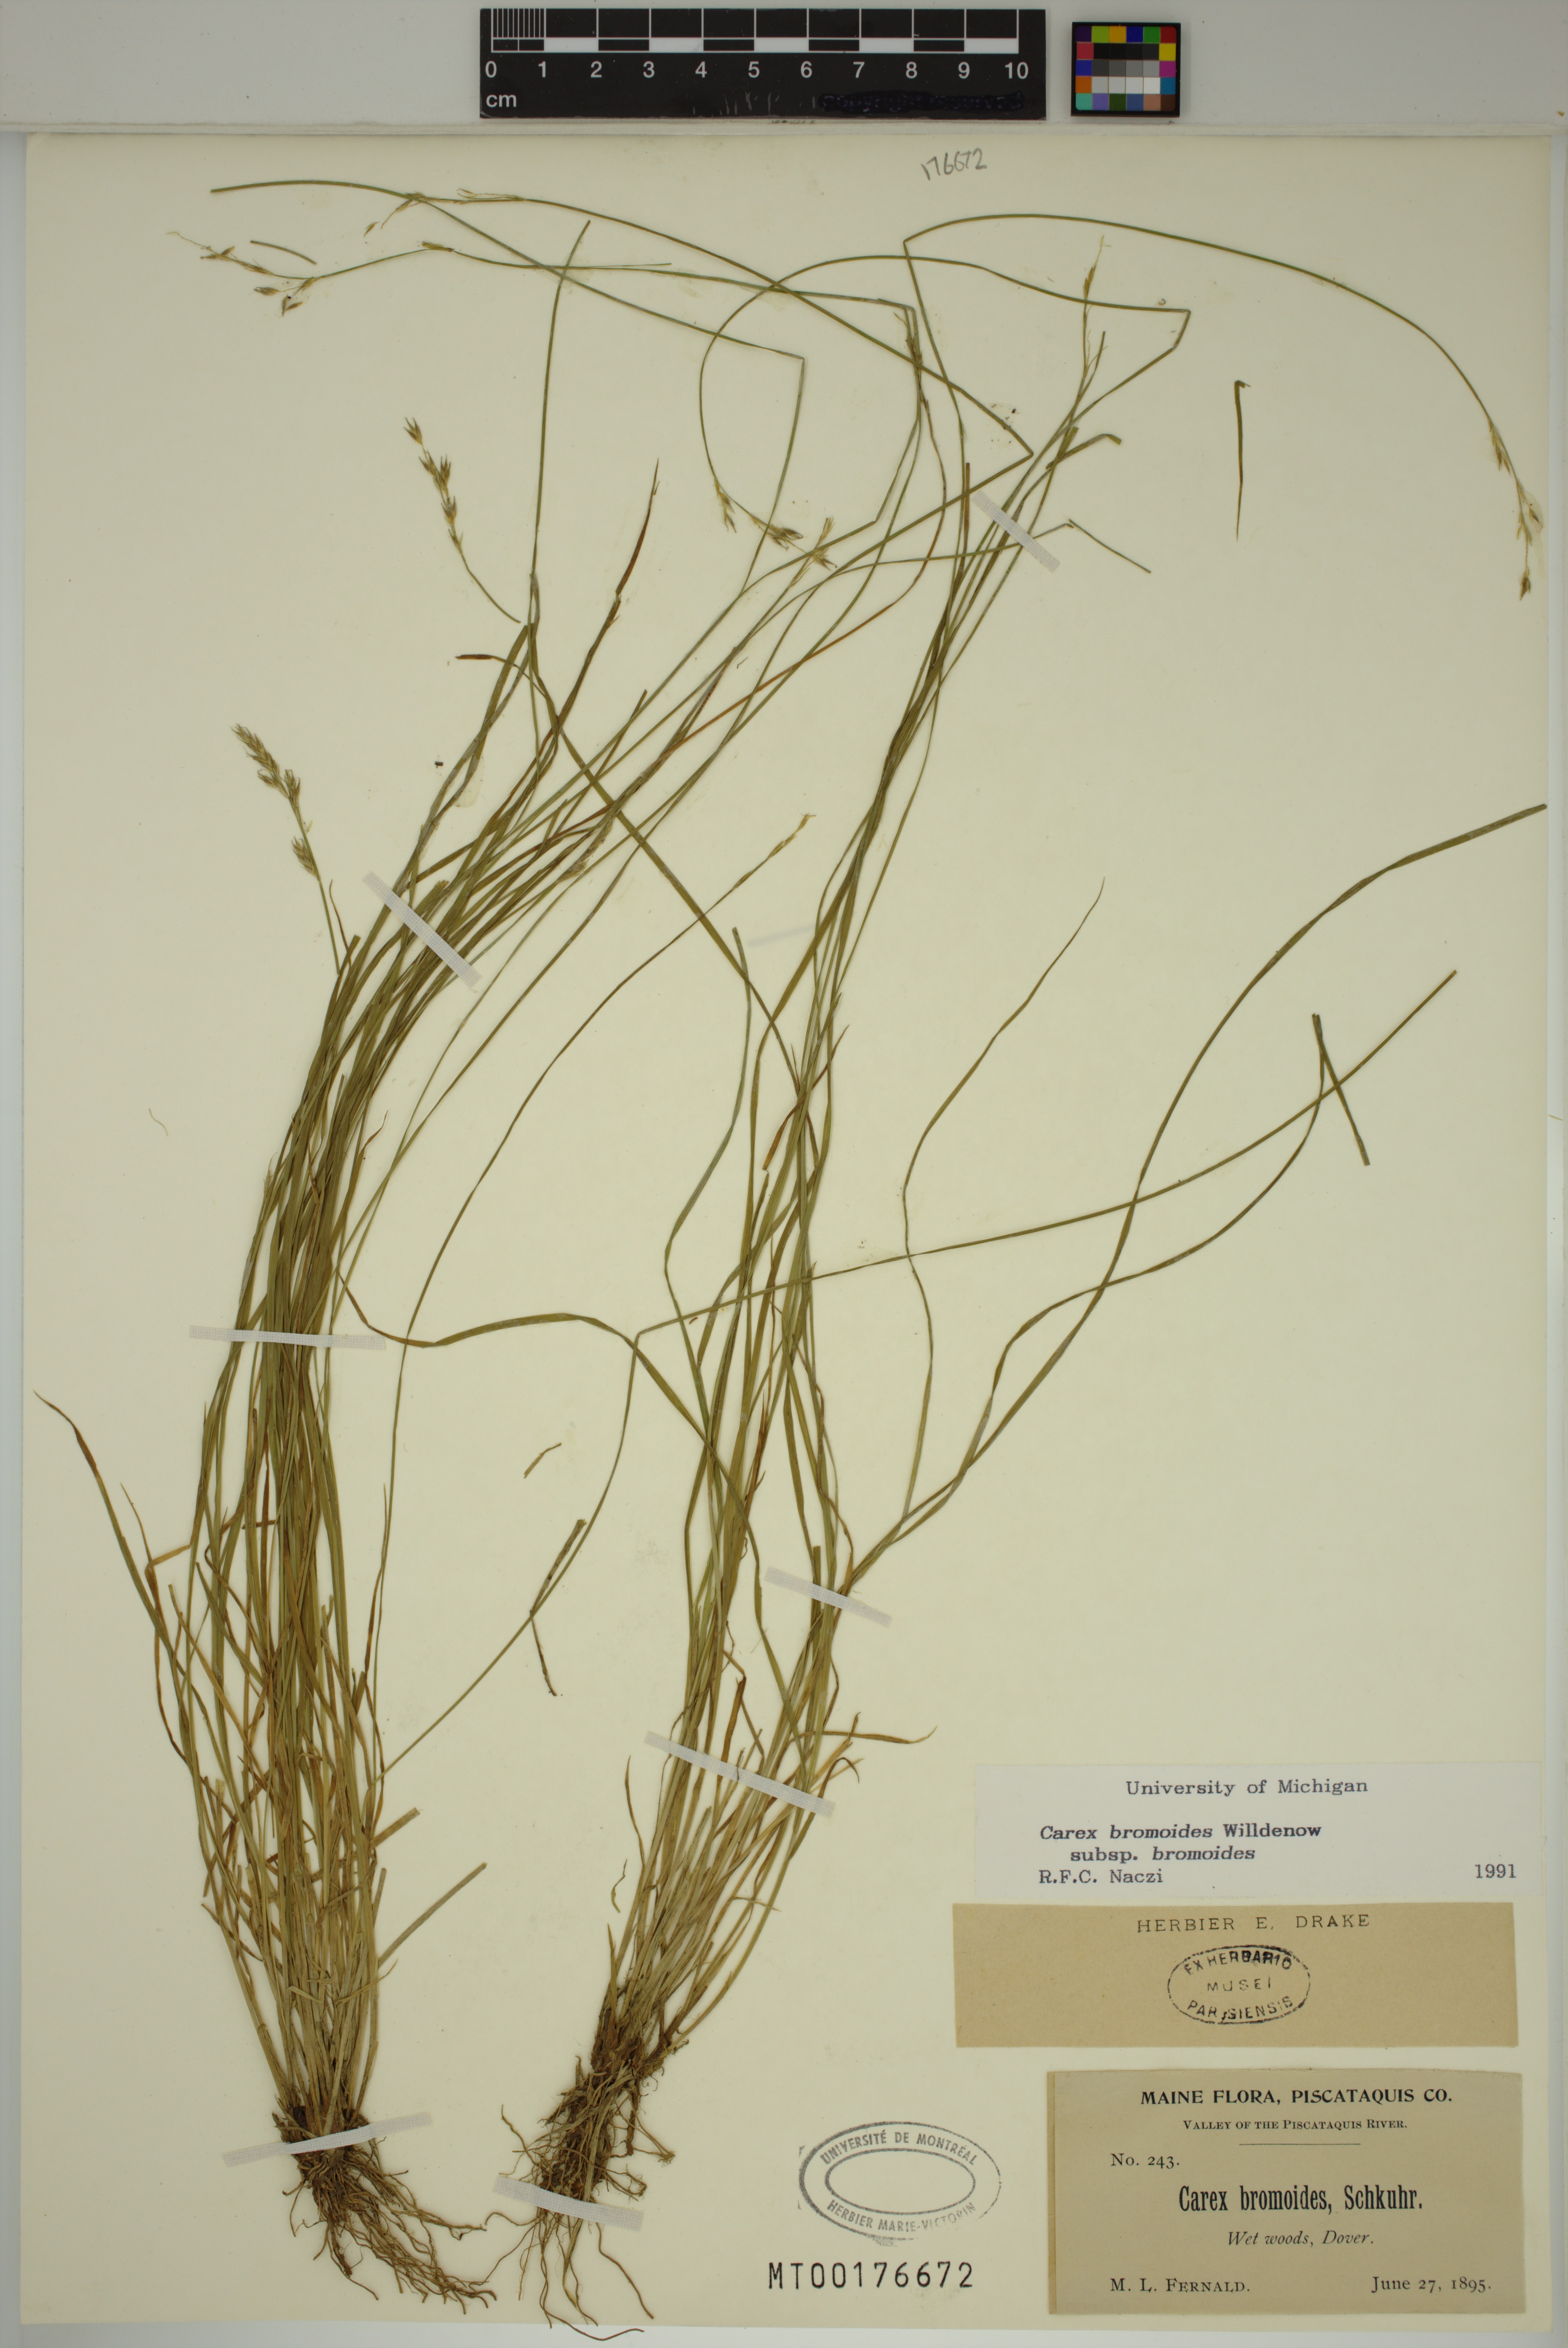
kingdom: Plantae
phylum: Tracheophyta
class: Liliopsida
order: Poales
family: Cyperaceae
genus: Carex
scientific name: Carex bromoides
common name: Brome hummock sedge
